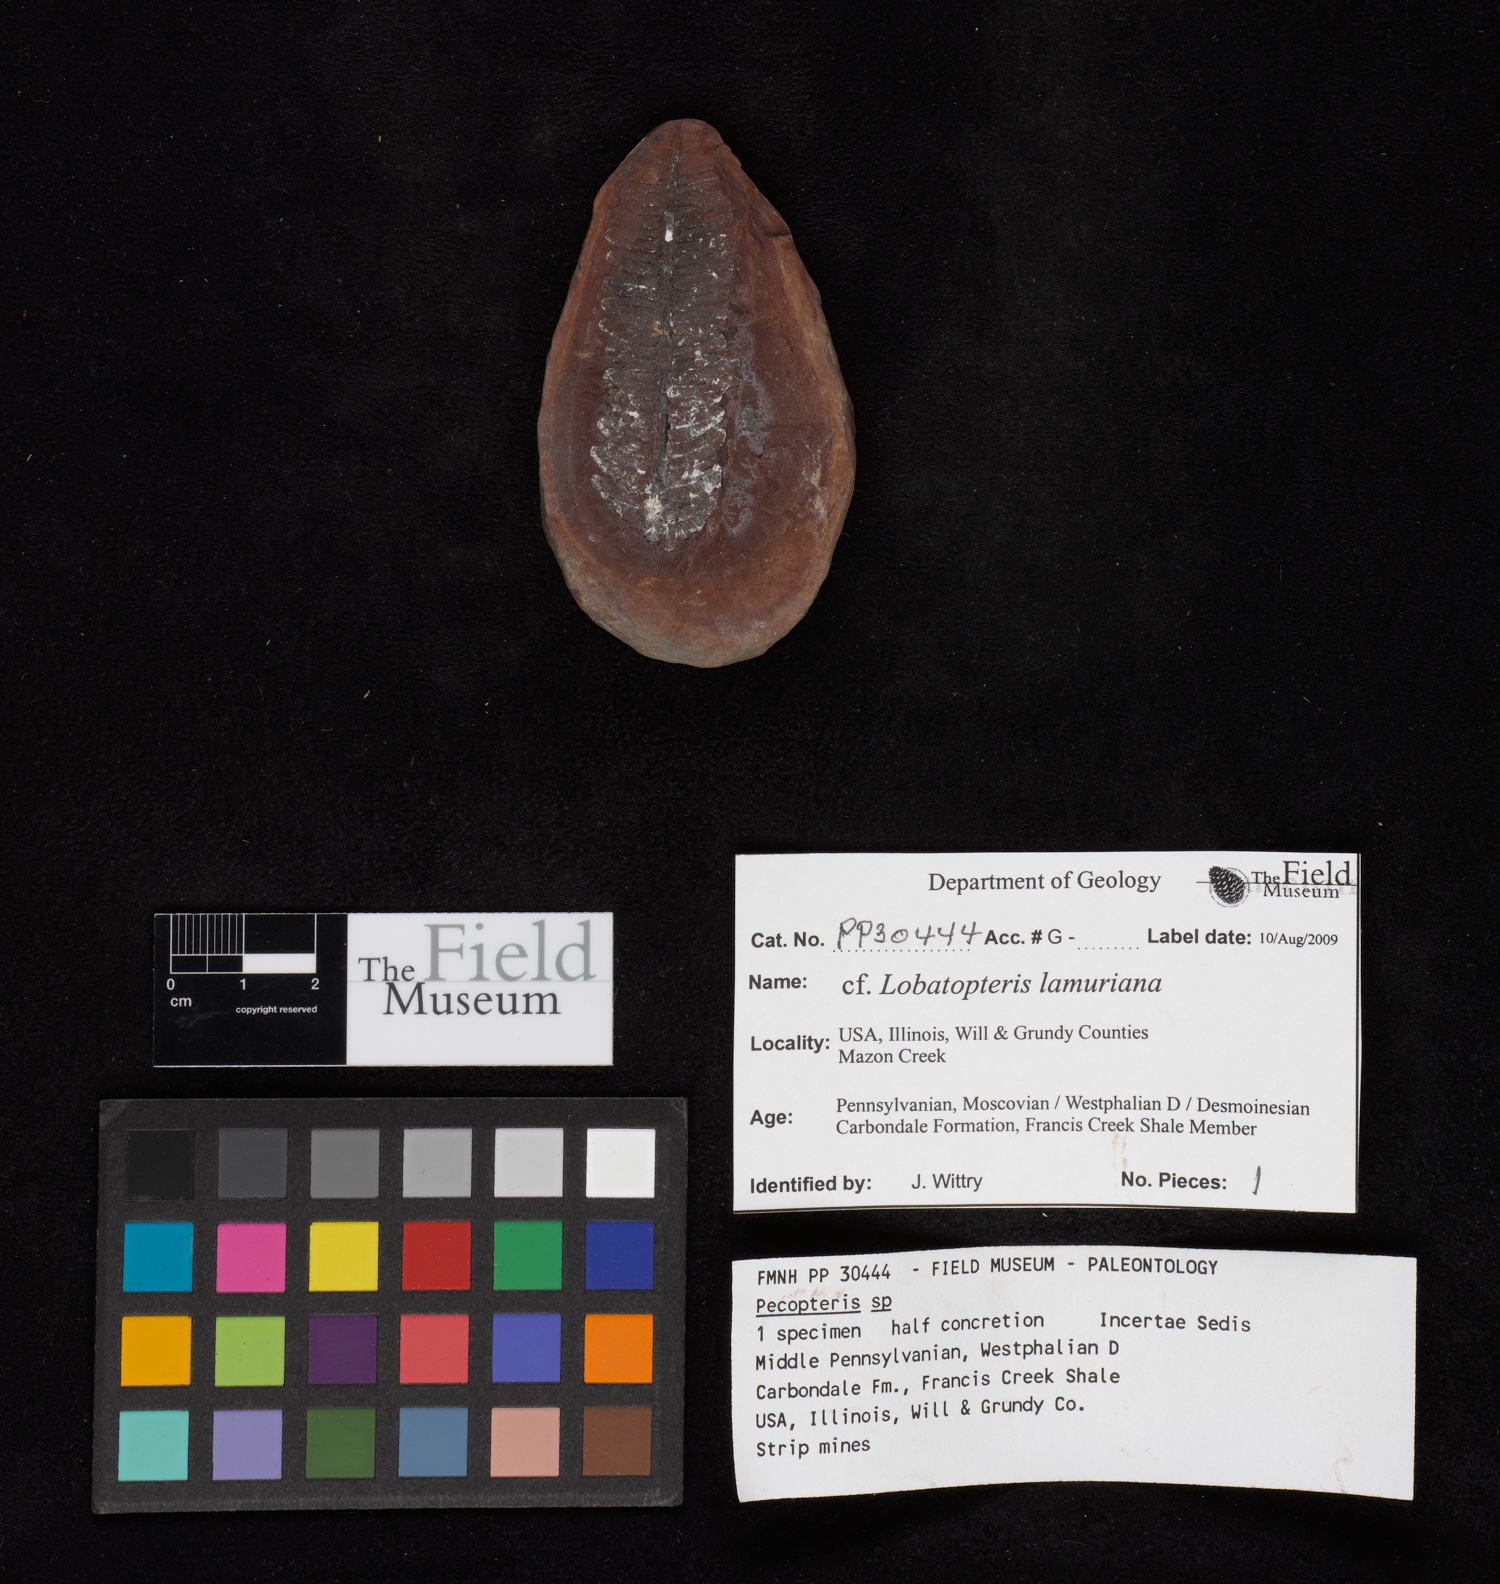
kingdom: Plantae
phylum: Tracheophyta
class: Polypodiopsida
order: Marattiales
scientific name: Marattiales
